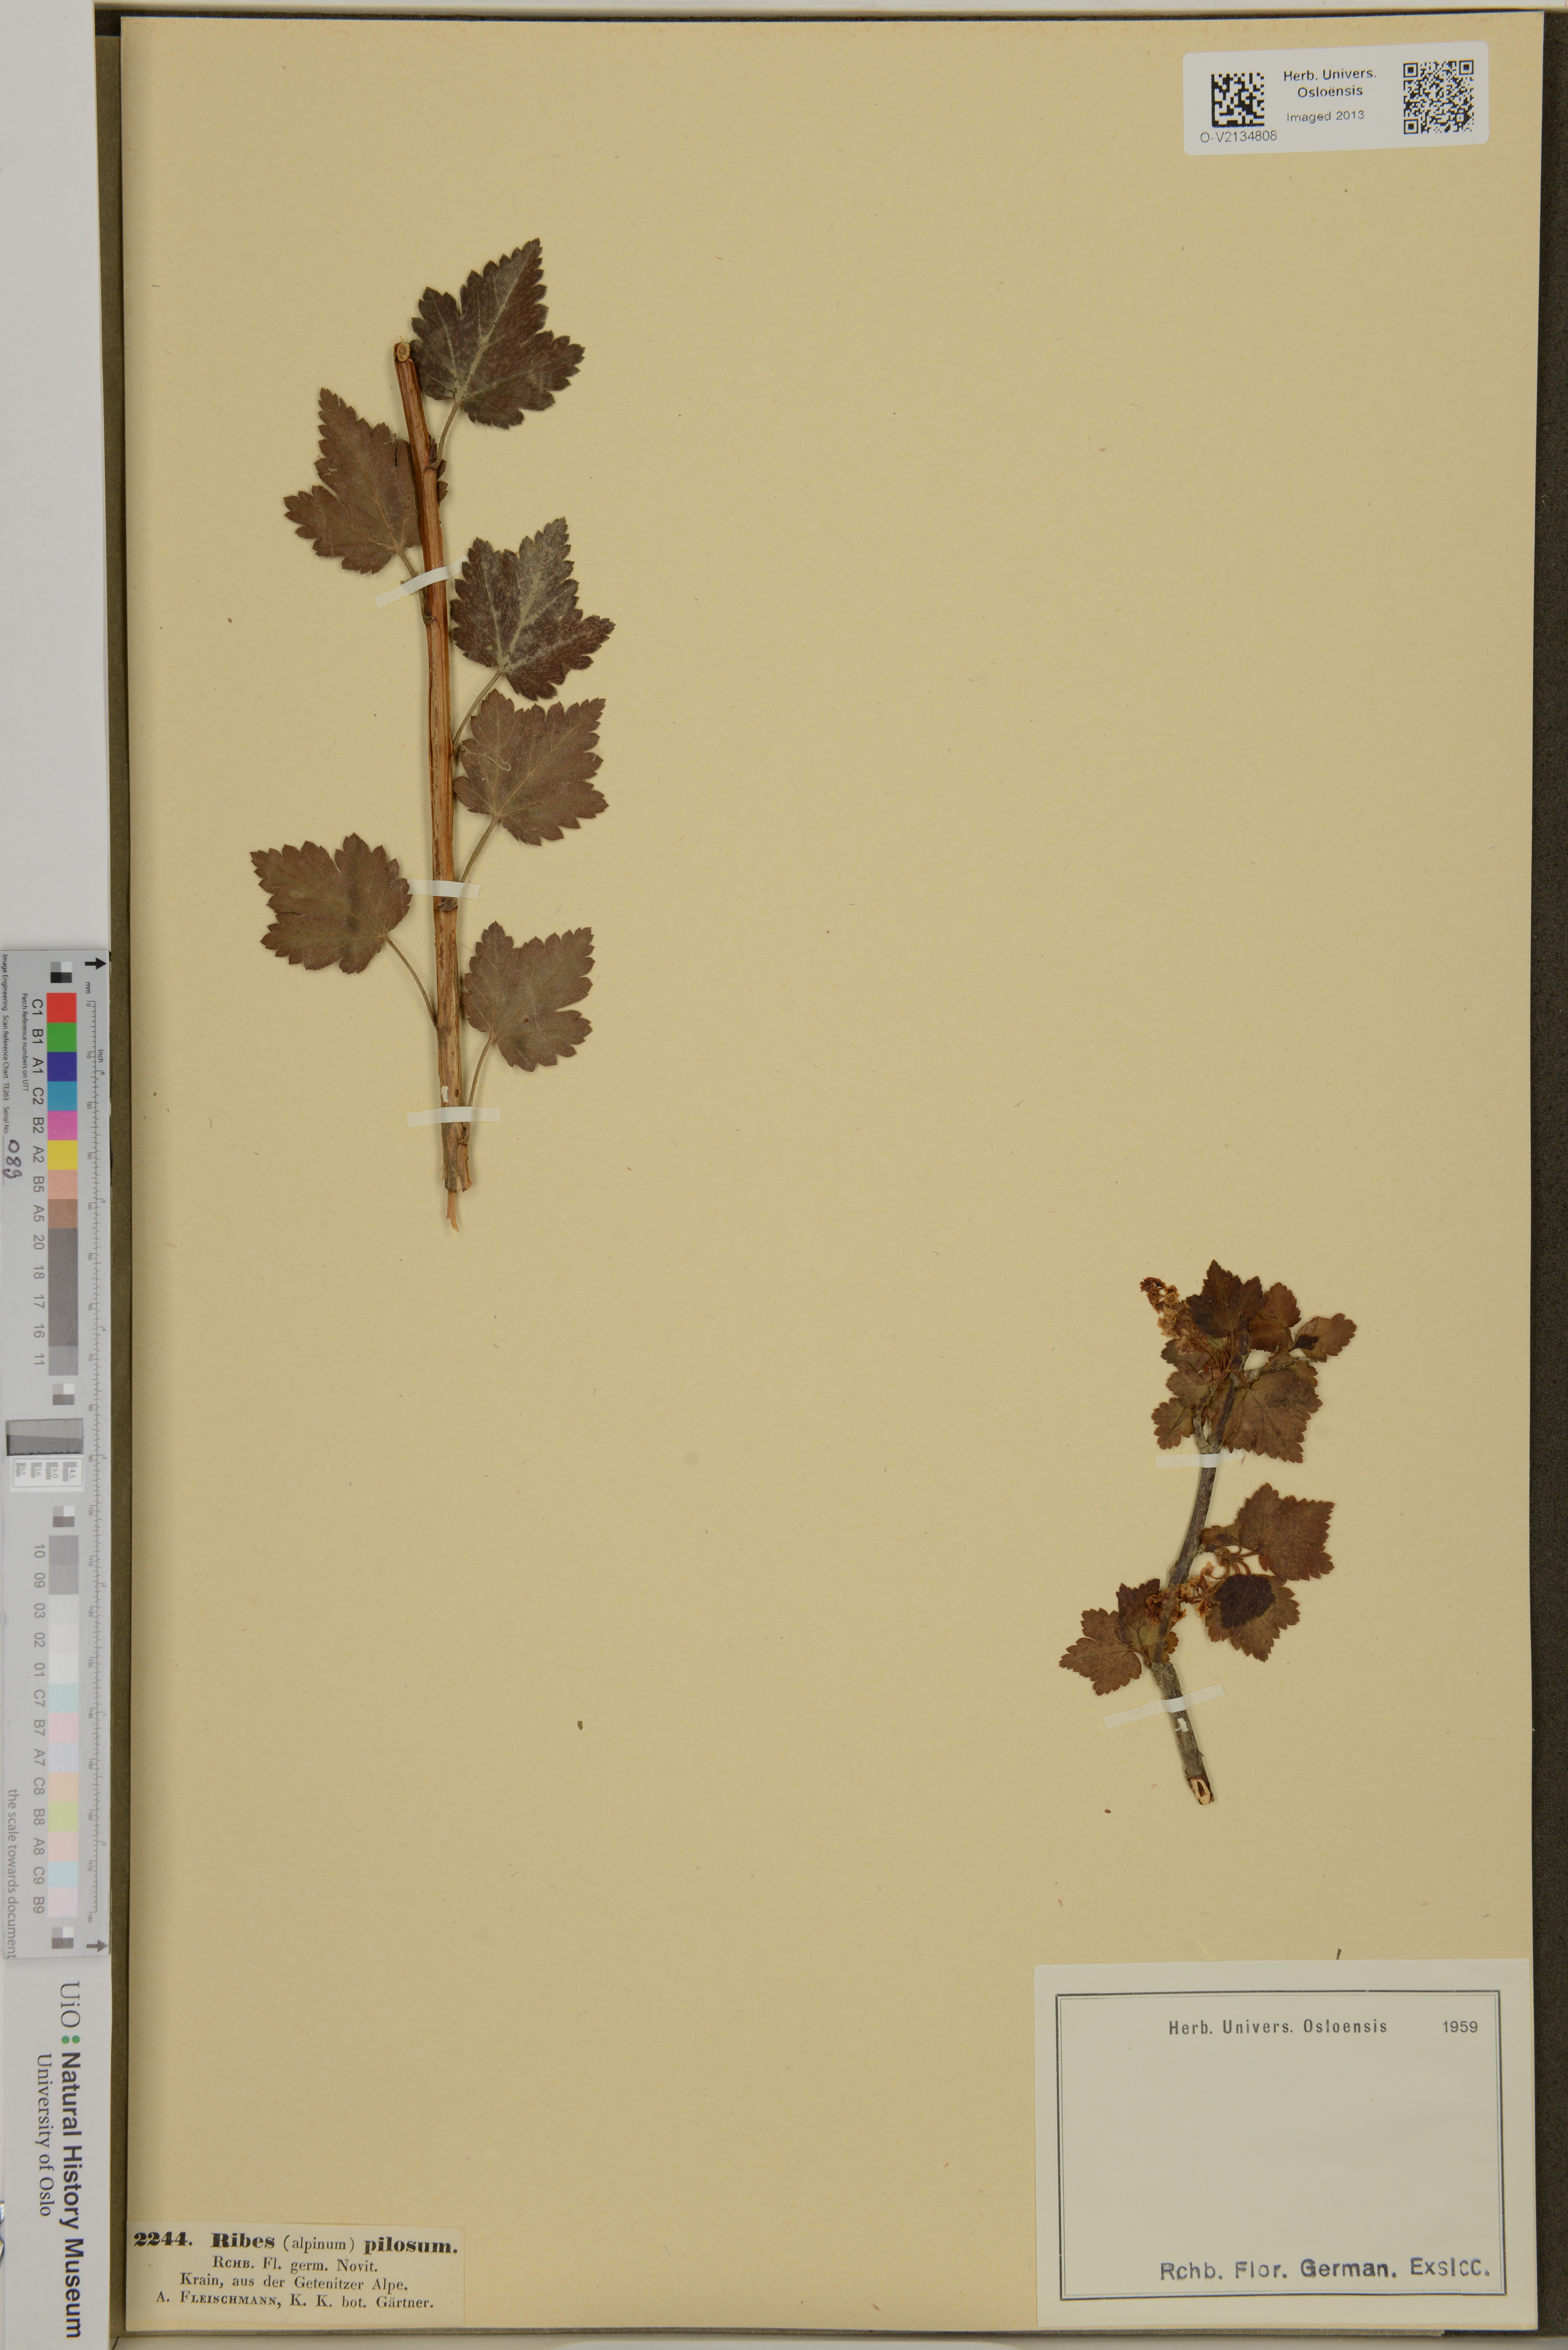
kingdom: Plantae
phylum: Tracheophyta
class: Magnoliopsida
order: Saxifragales
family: Grossulariaceae
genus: Ribes
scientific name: Ribes alpinum
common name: Alpine currant
